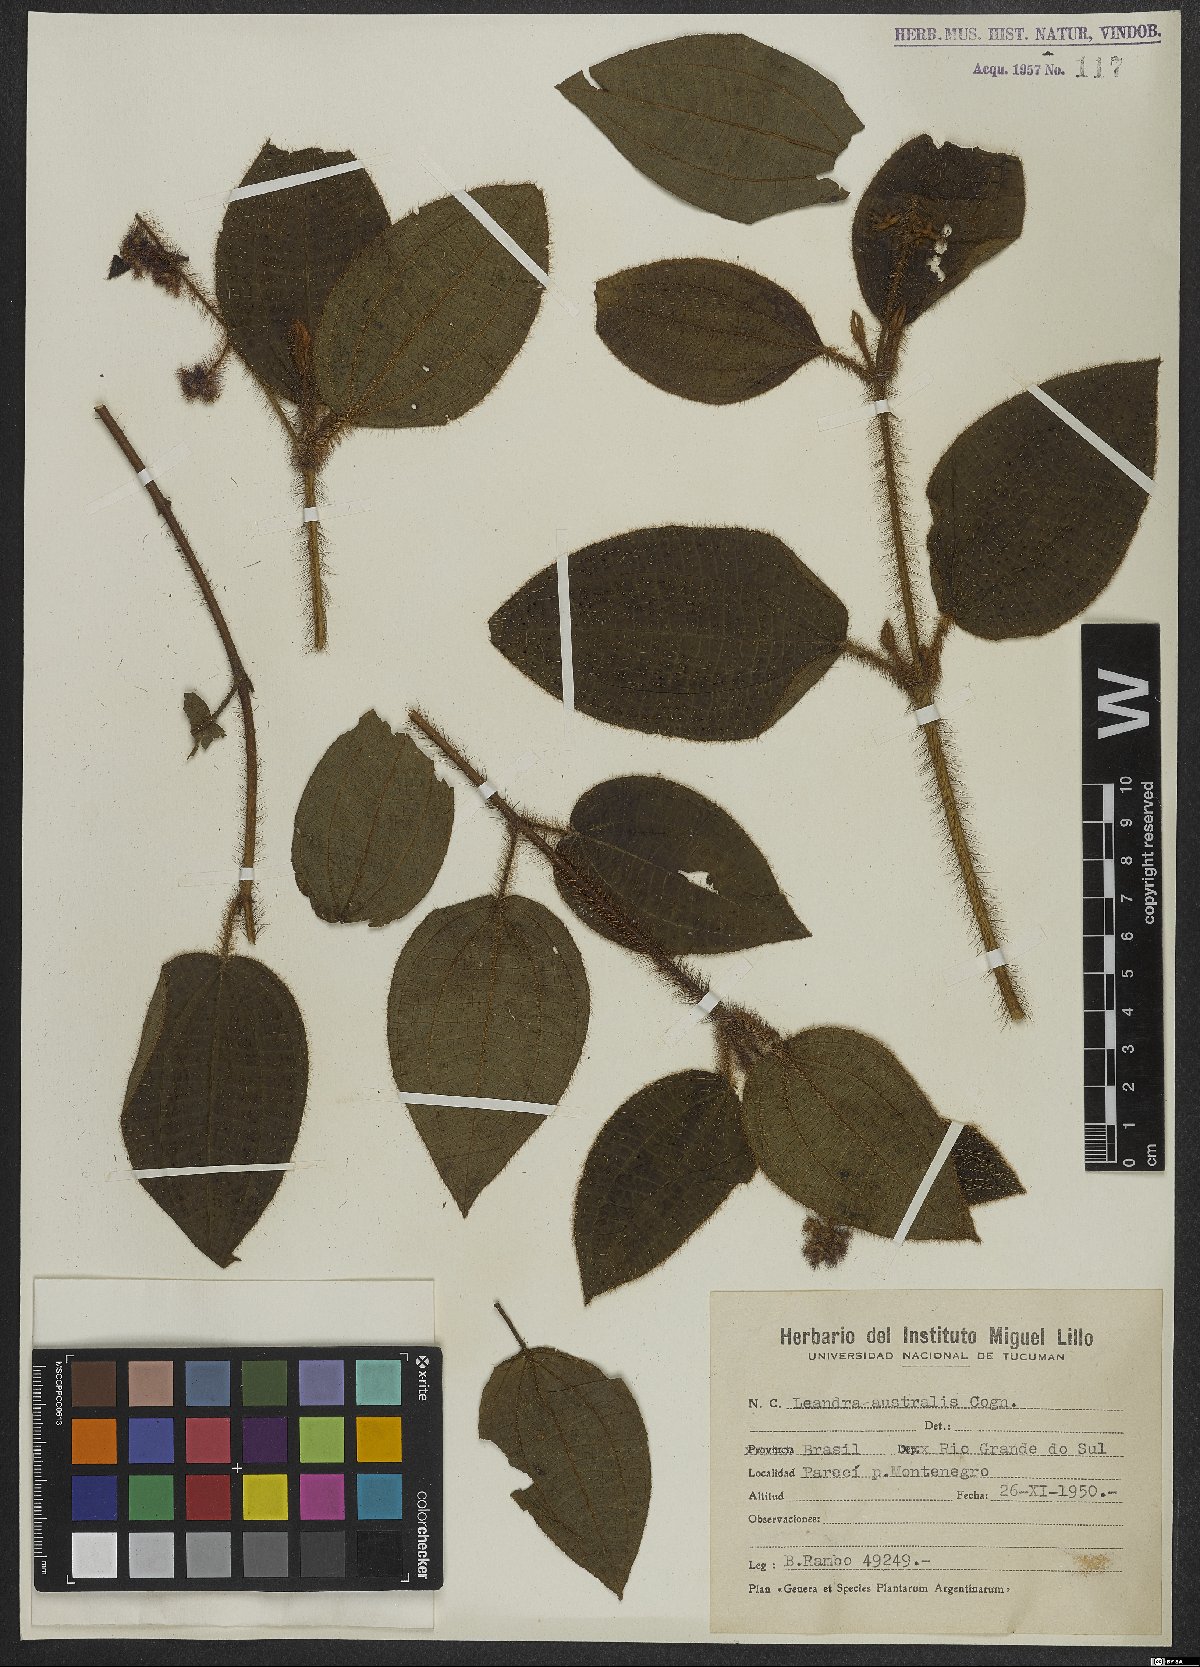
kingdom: Plantae
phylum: Tracheophyta
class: Magnoliopsida
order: Myrtales
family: Melastomataceae
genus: Miconia
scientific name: Miconia australis
